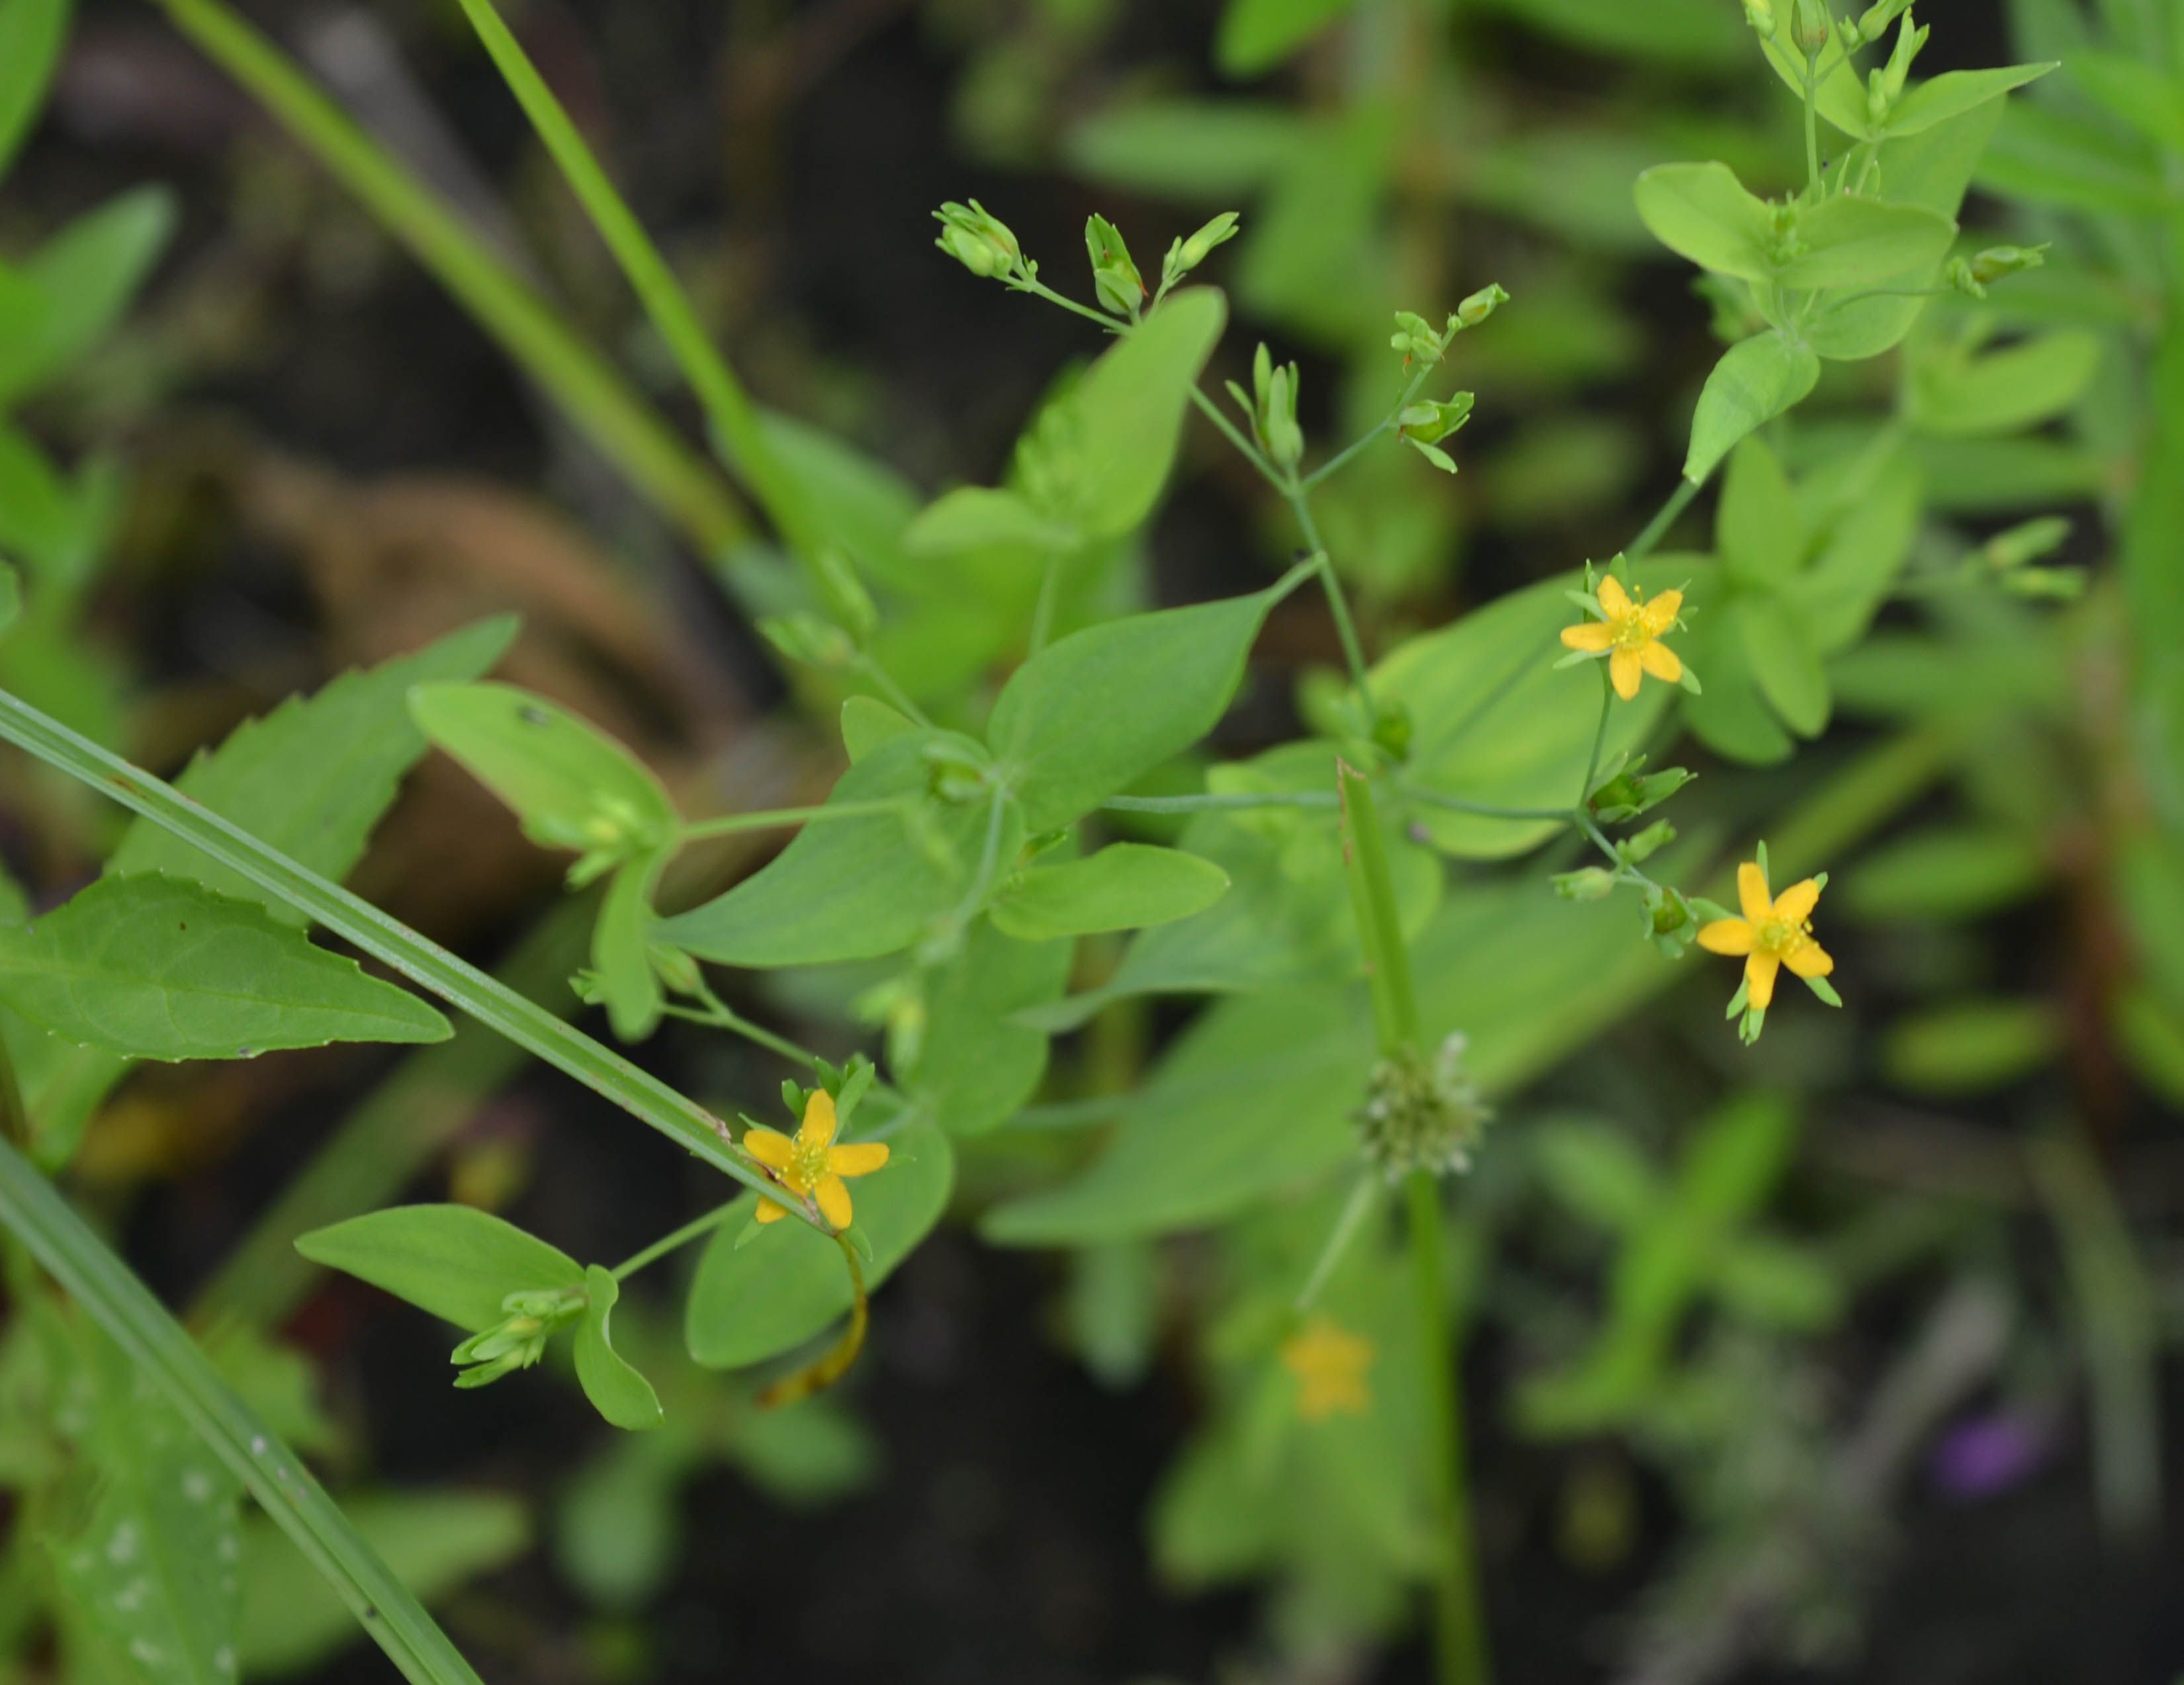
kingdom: Plantae
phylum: Tracheophyta
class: Magnoliopsida
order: Malpighiales
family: Hypericaceae
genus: Hypericum
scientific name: Hypericum mutilum
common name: Dwarf st. john's-wort
